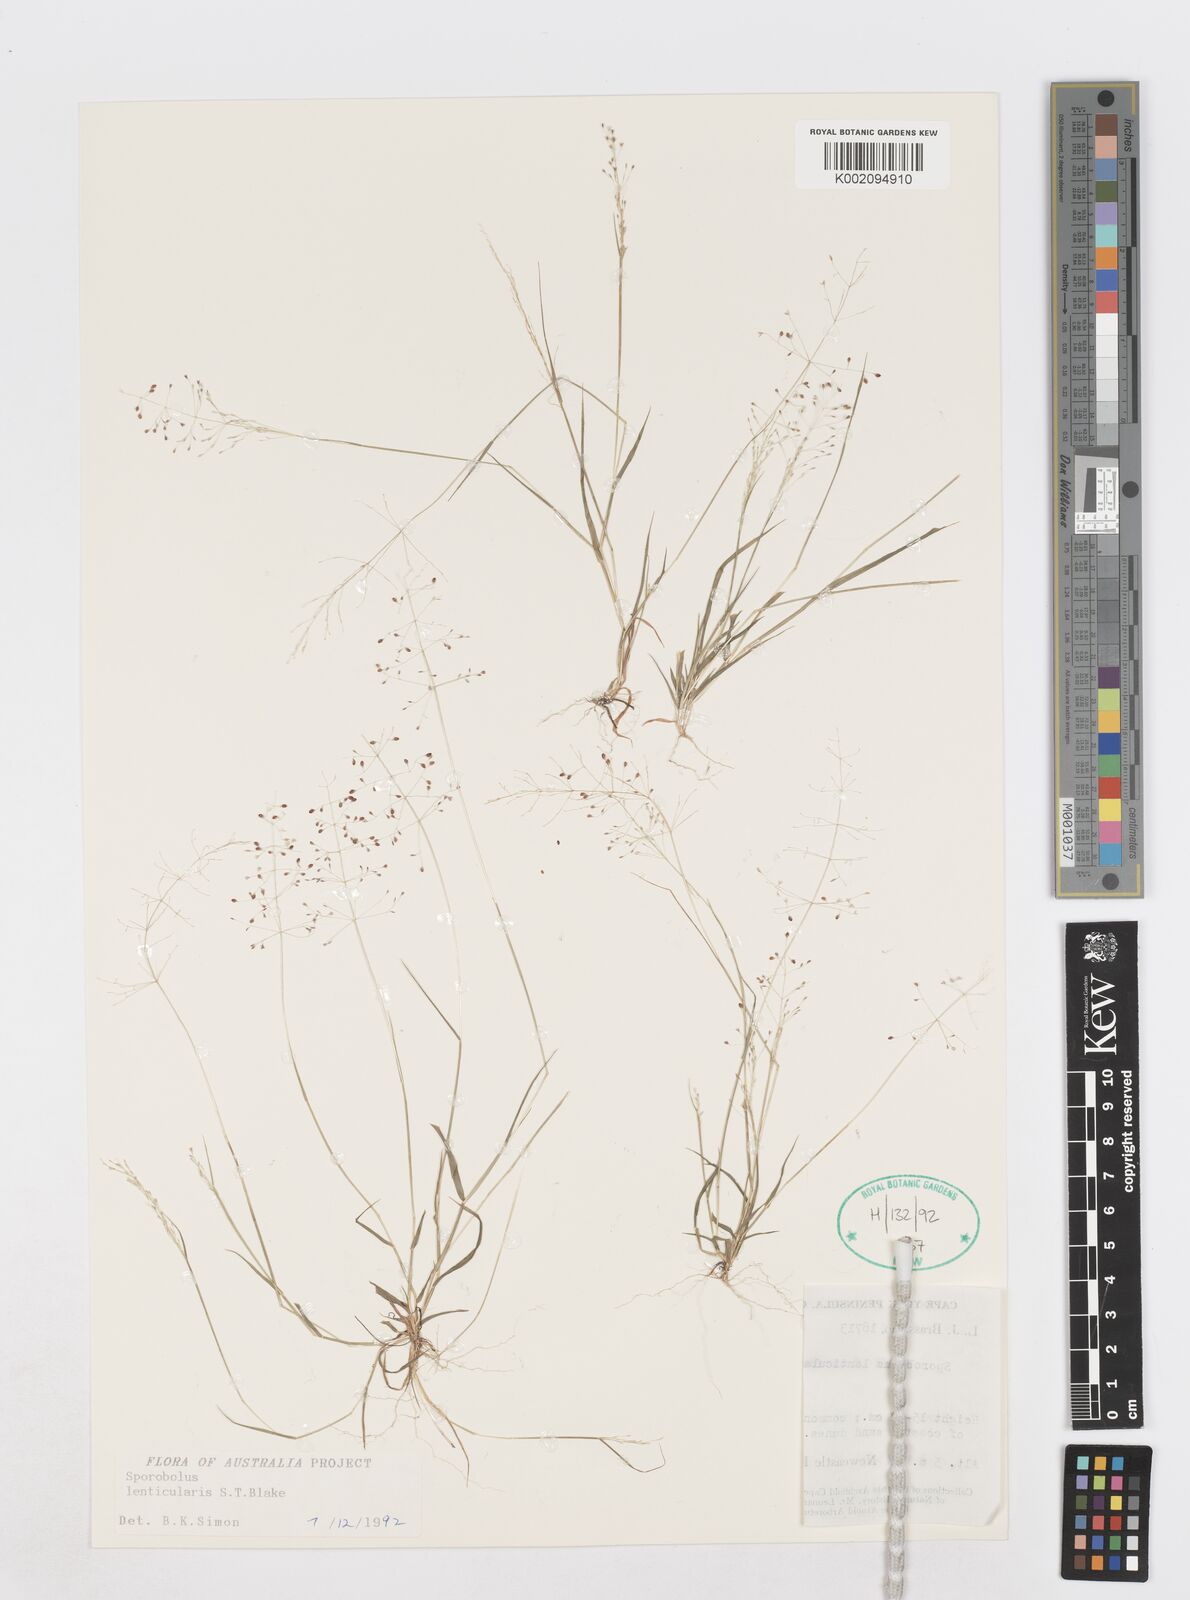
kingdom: Plantae
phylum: Tracheophyta
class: Liliopsida
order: Poales
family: Poaceae
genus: Sporobolus
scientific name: Sporobolus lenticularis
